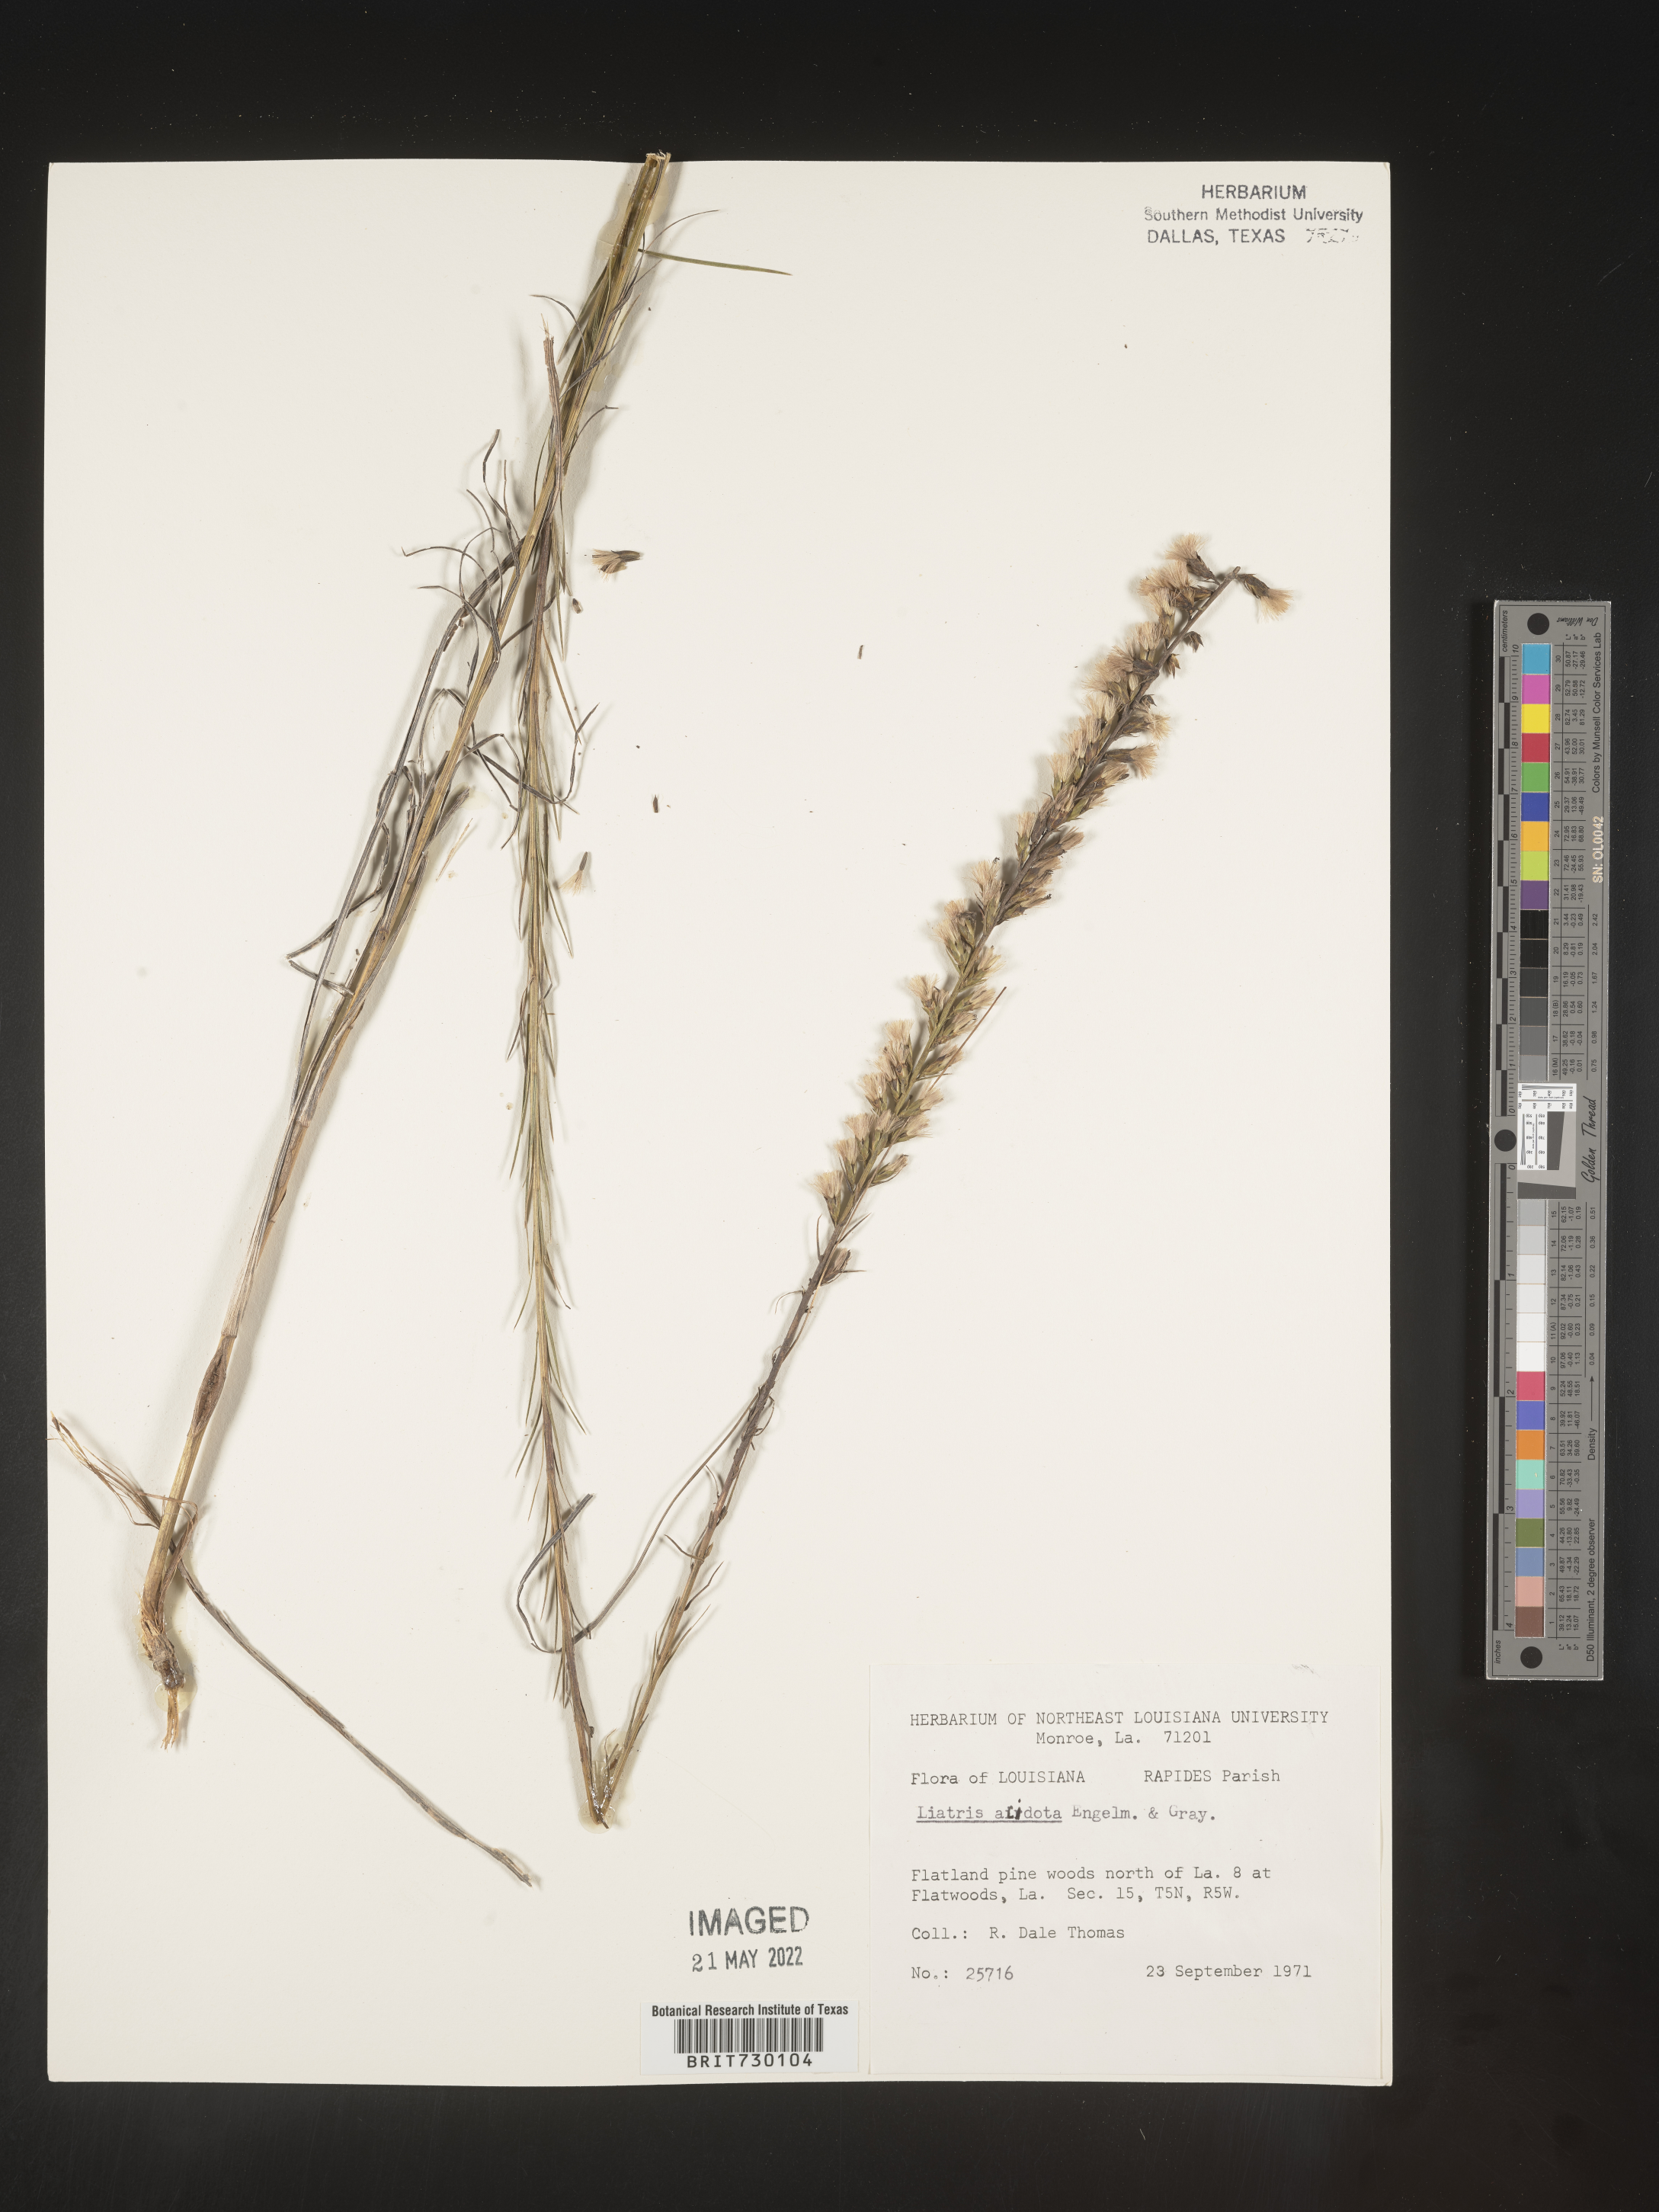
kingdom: Plantae
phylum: Tracheophyta
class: Magnoliopsida
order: Asterales
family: Asteraceae
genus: Liatris
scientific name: Liatris acidota
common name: Gulf coast gayfeather
